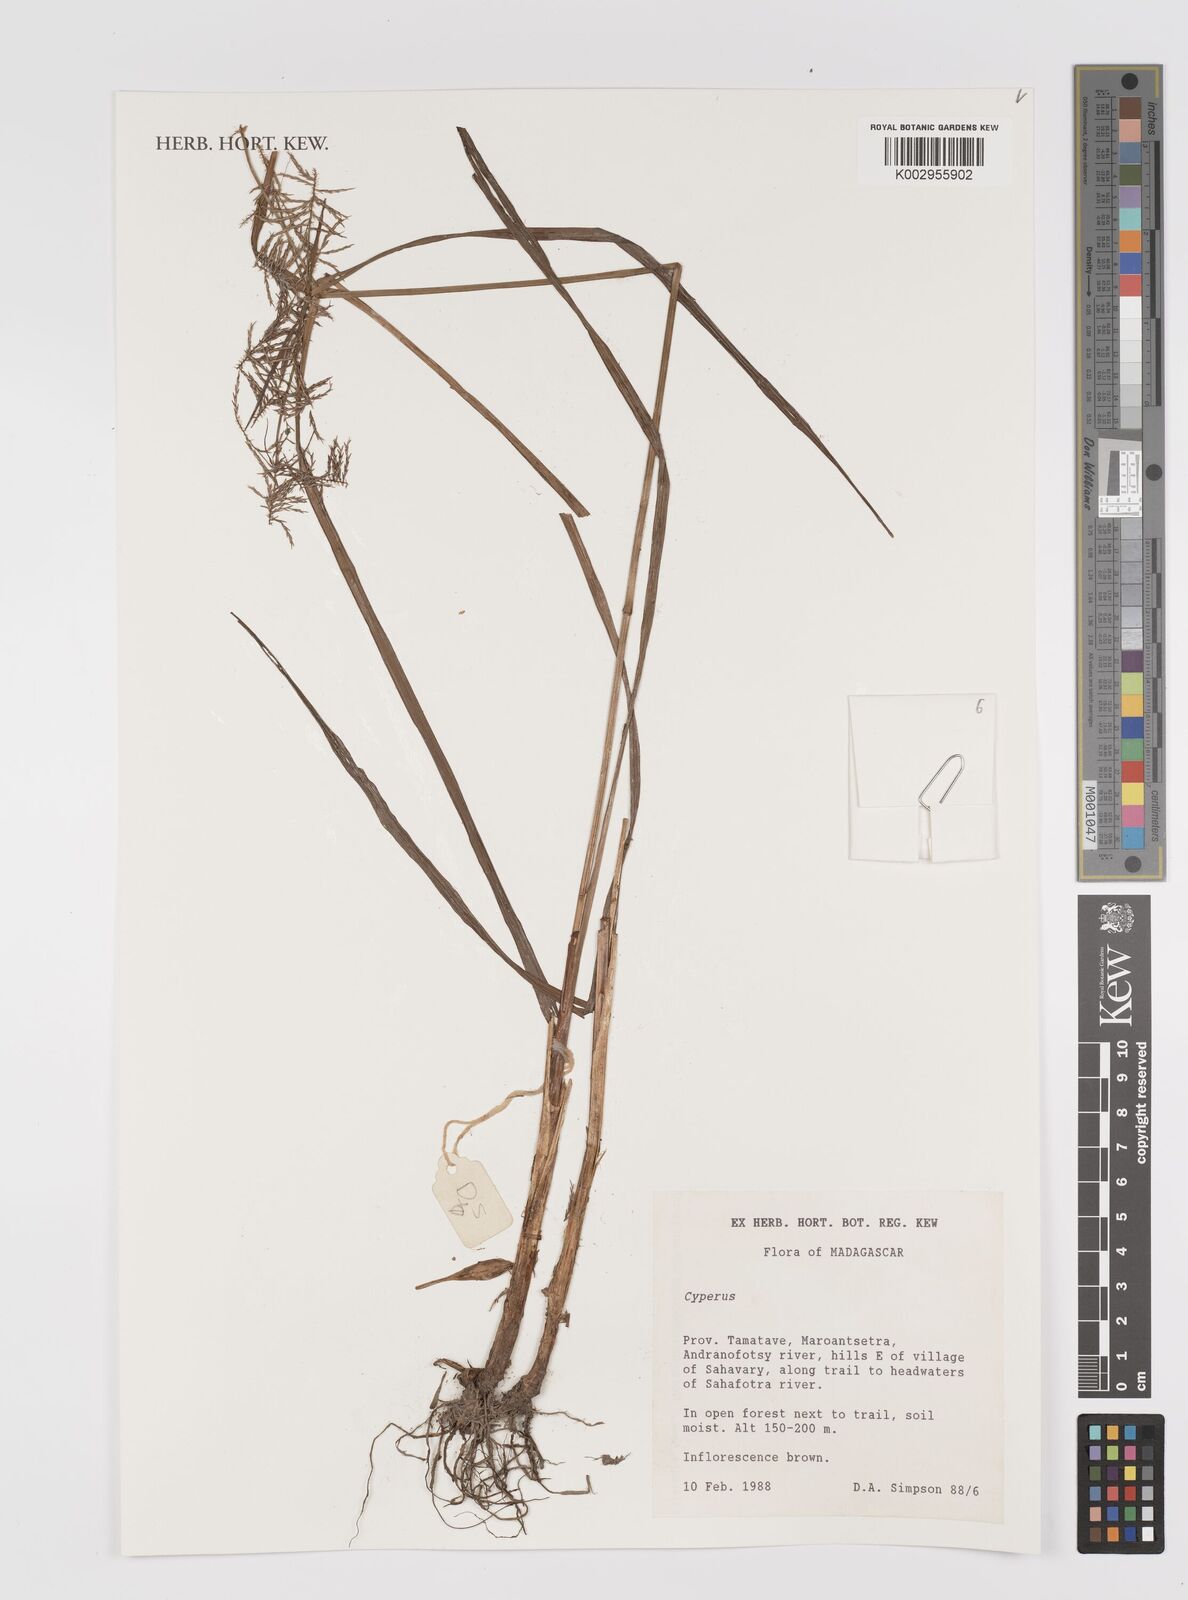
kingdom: Plantae
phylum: Tracheophyta
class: Liliopsida
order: Poales
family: Cyperaceae
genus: Cyperus
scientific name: Cyperus
